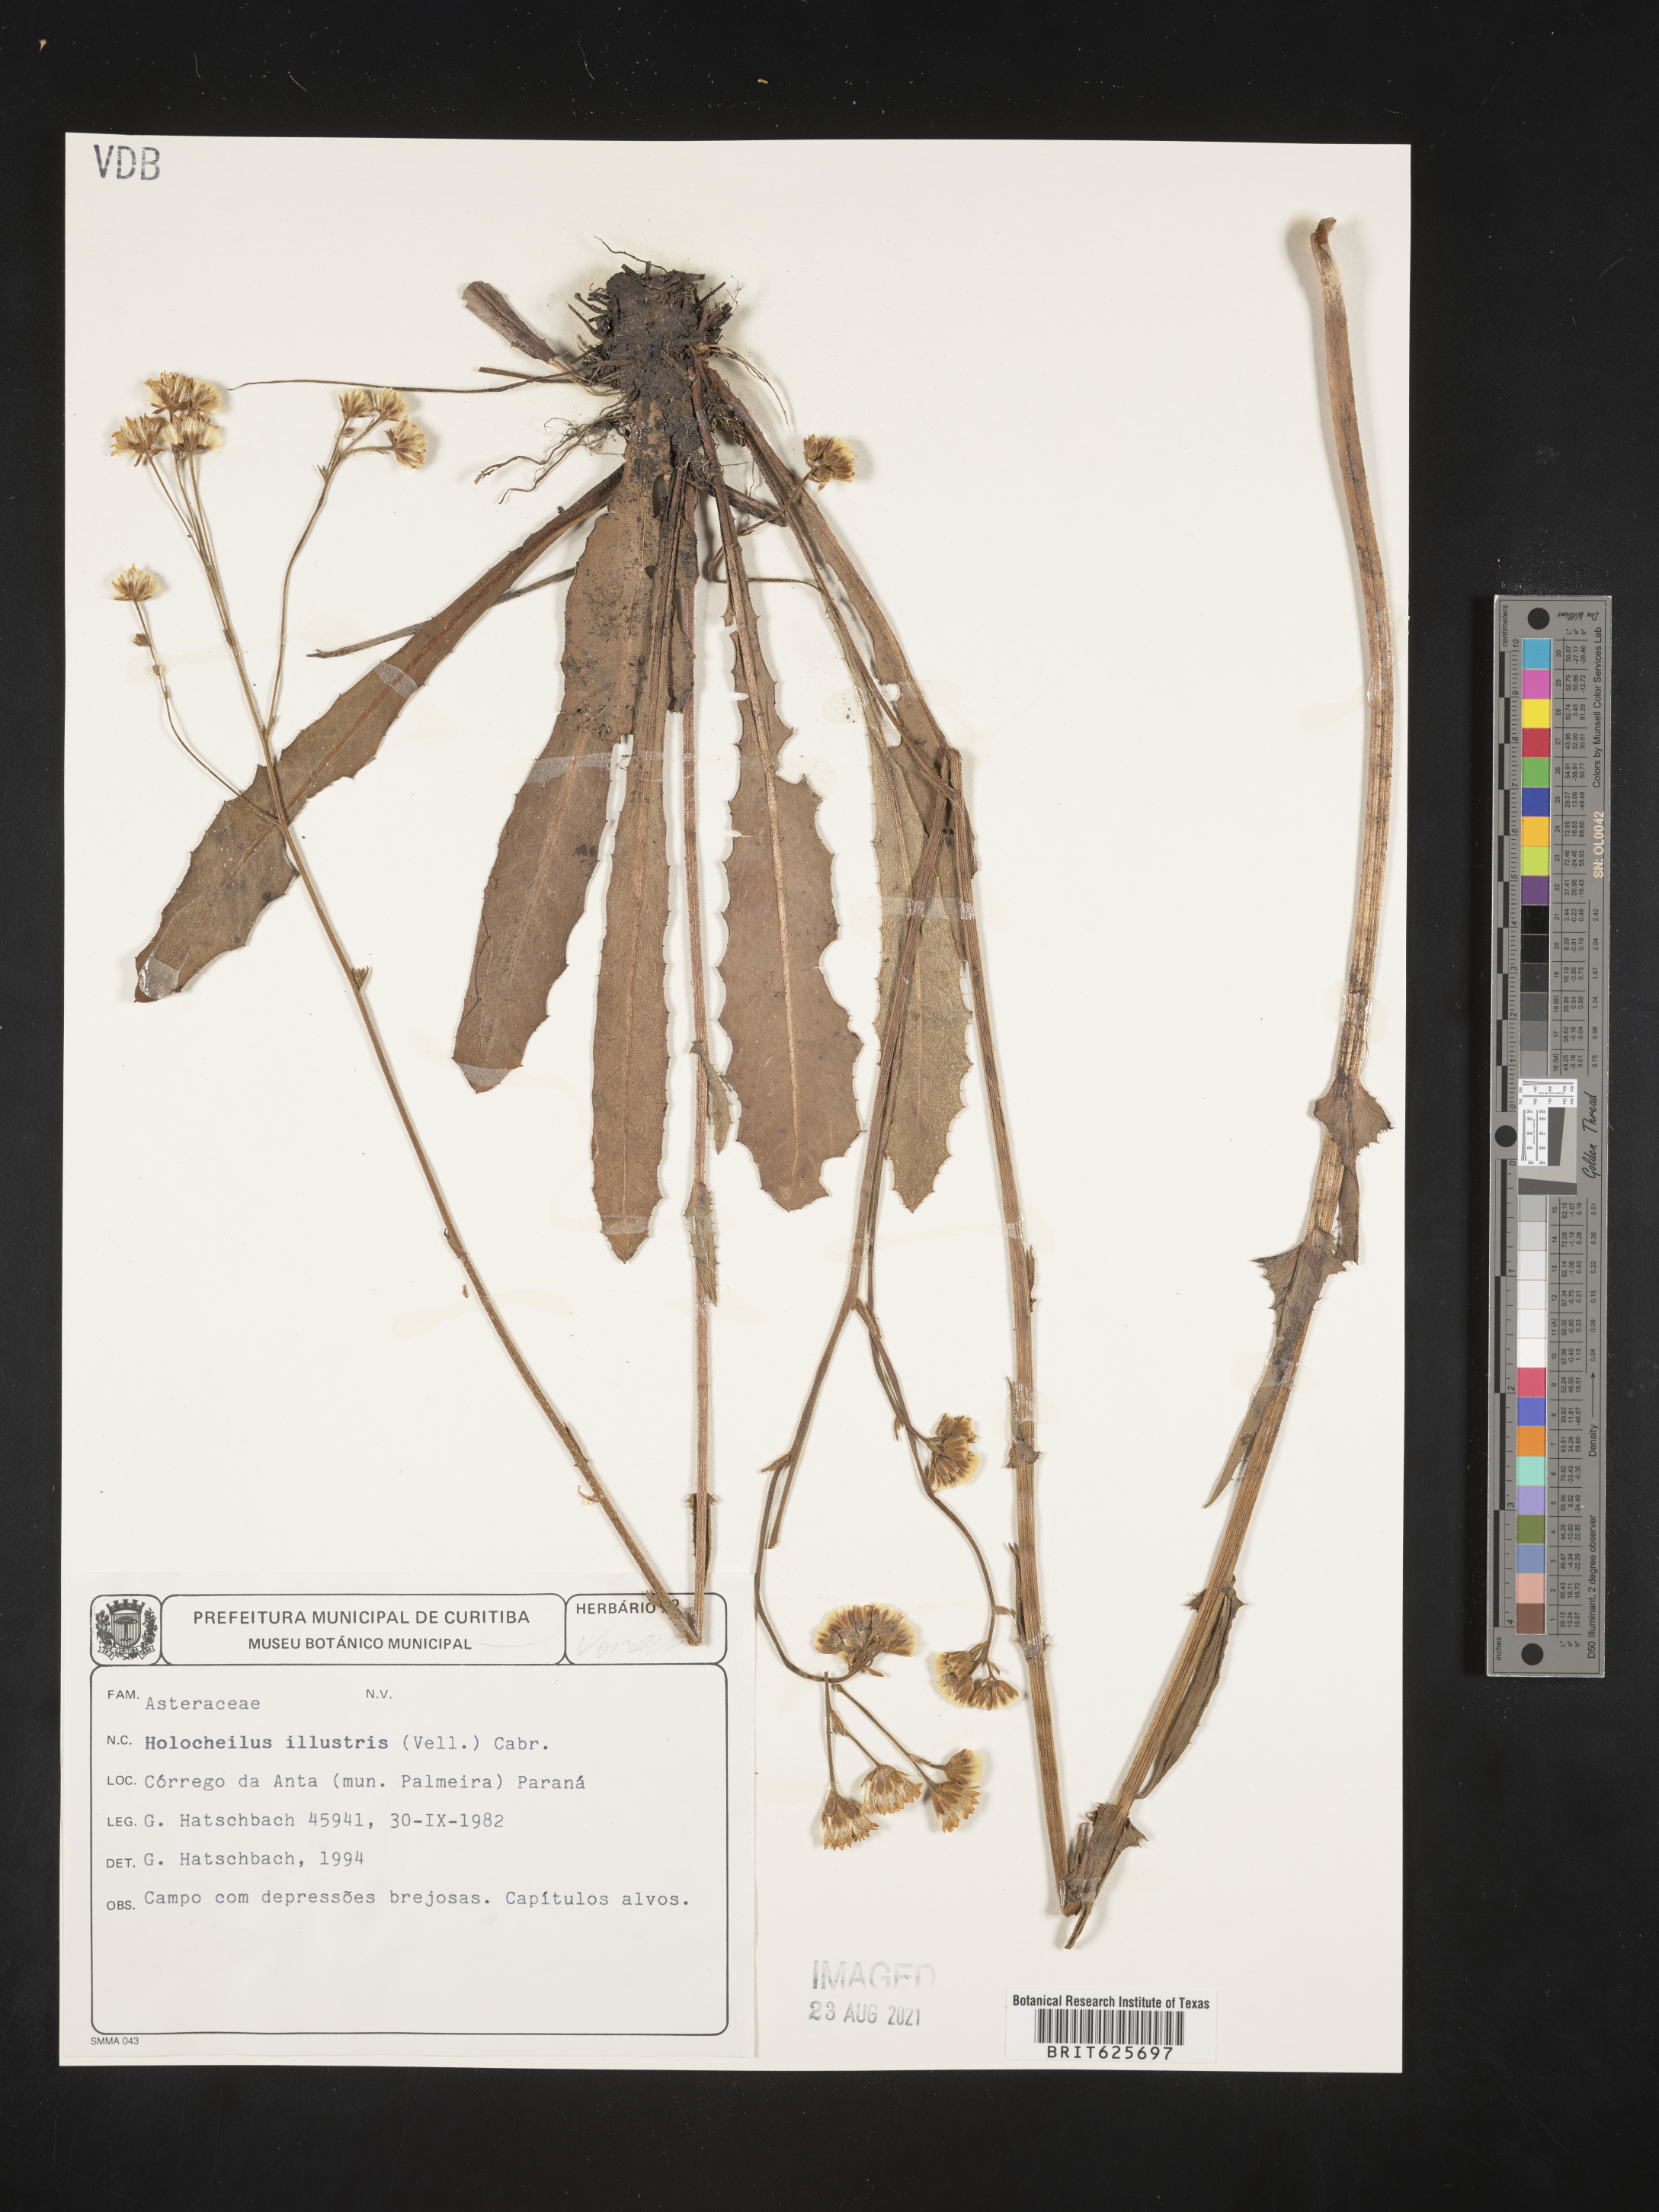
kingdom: Plantae
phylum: Tracheophyta
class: Magnoliopsida
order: Asterales
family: Asteraceae
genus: Holocheilus
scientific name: Holocheilus
